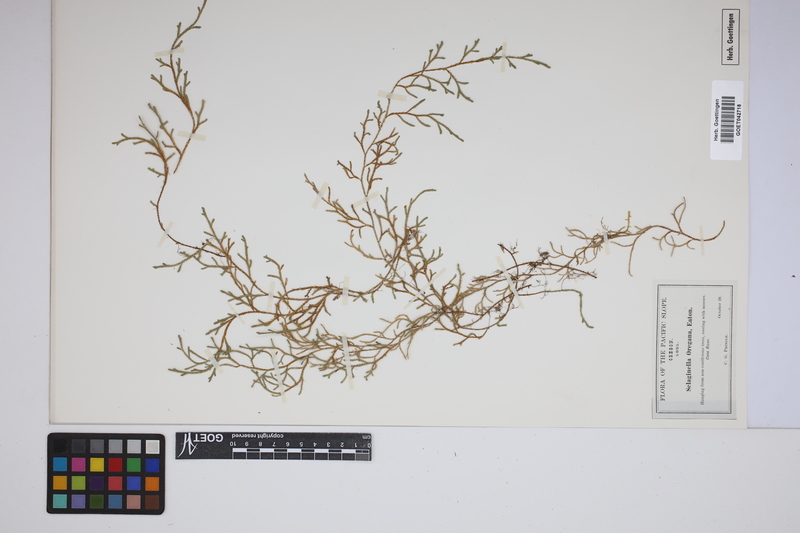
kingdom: Plantae
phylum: Tracheophyta
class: Lycopodiopsida
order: Selaginellales
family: Selaginellaceae
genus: Selaginella
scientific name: Selaginella oregana
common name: Oregon selaginella
